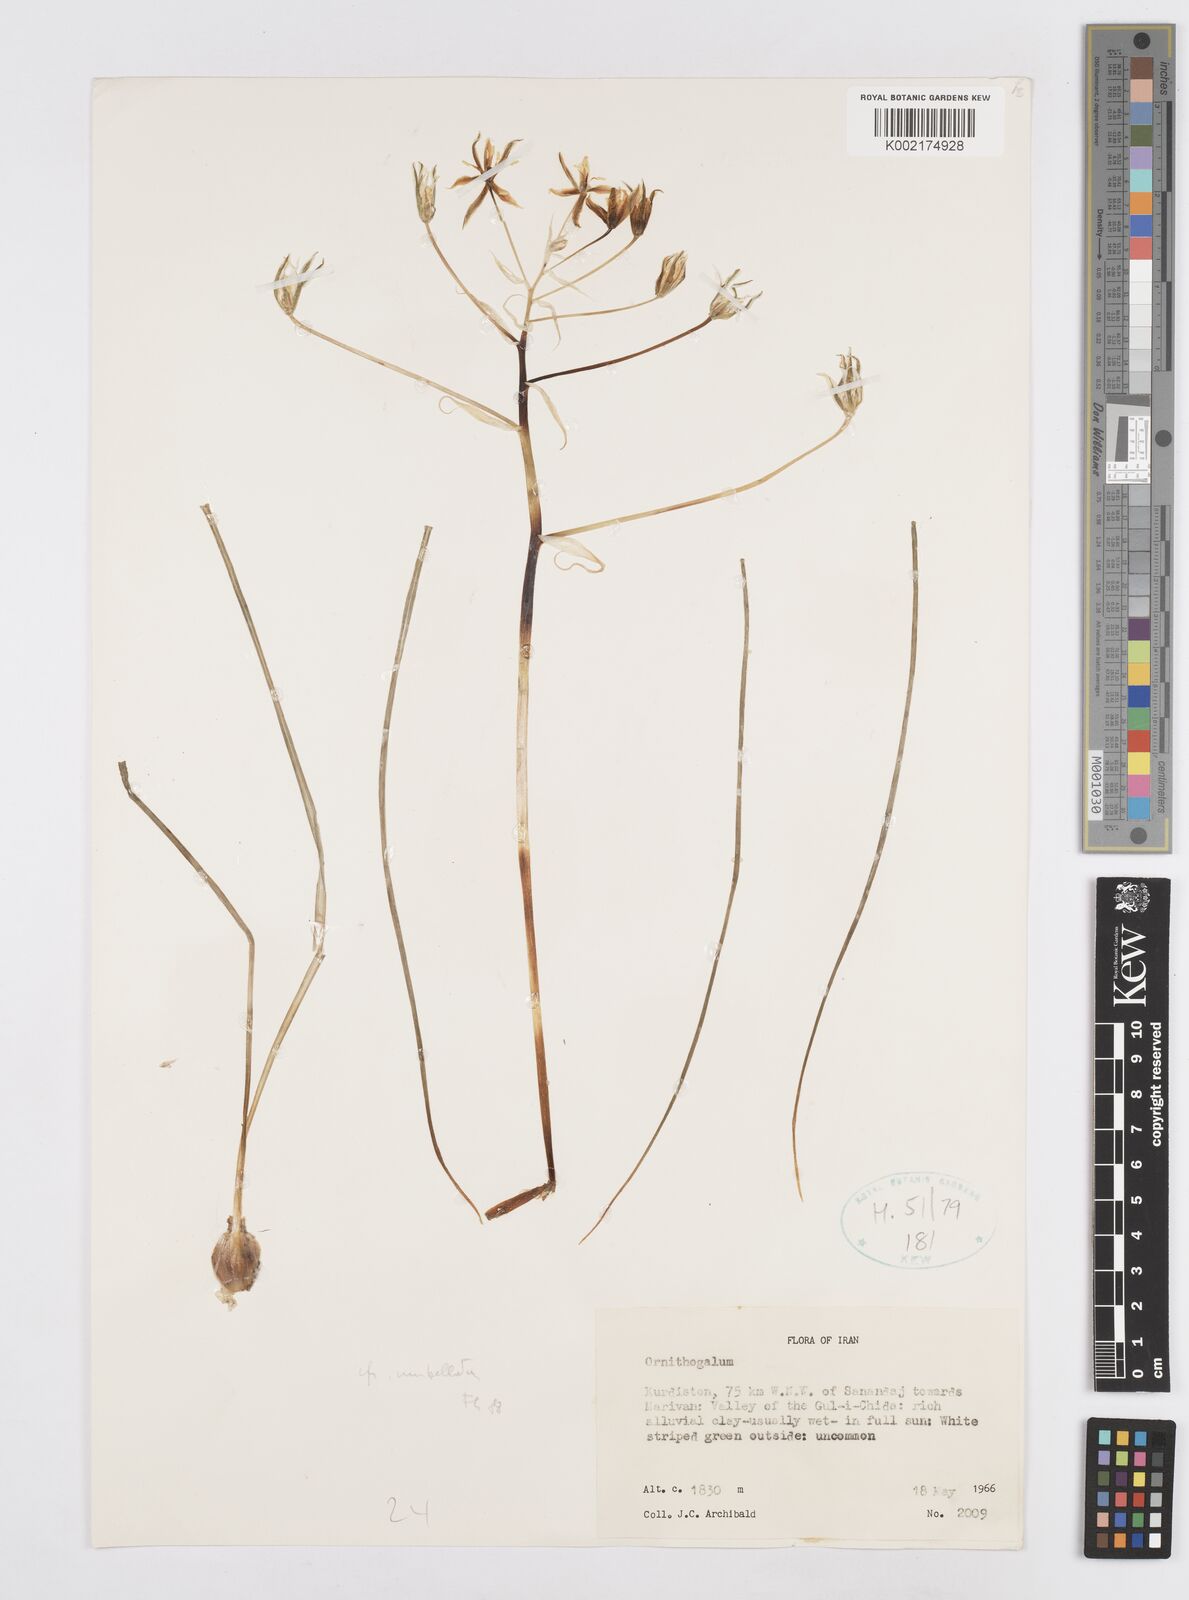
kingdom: Plantae
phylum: Tracheophyta
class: Liliopsida
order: Asparagales
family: Asparagaceae
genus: Ornithogalum
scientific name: Ornithogalum umbellatum
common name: Garden star-of-bethlehem
